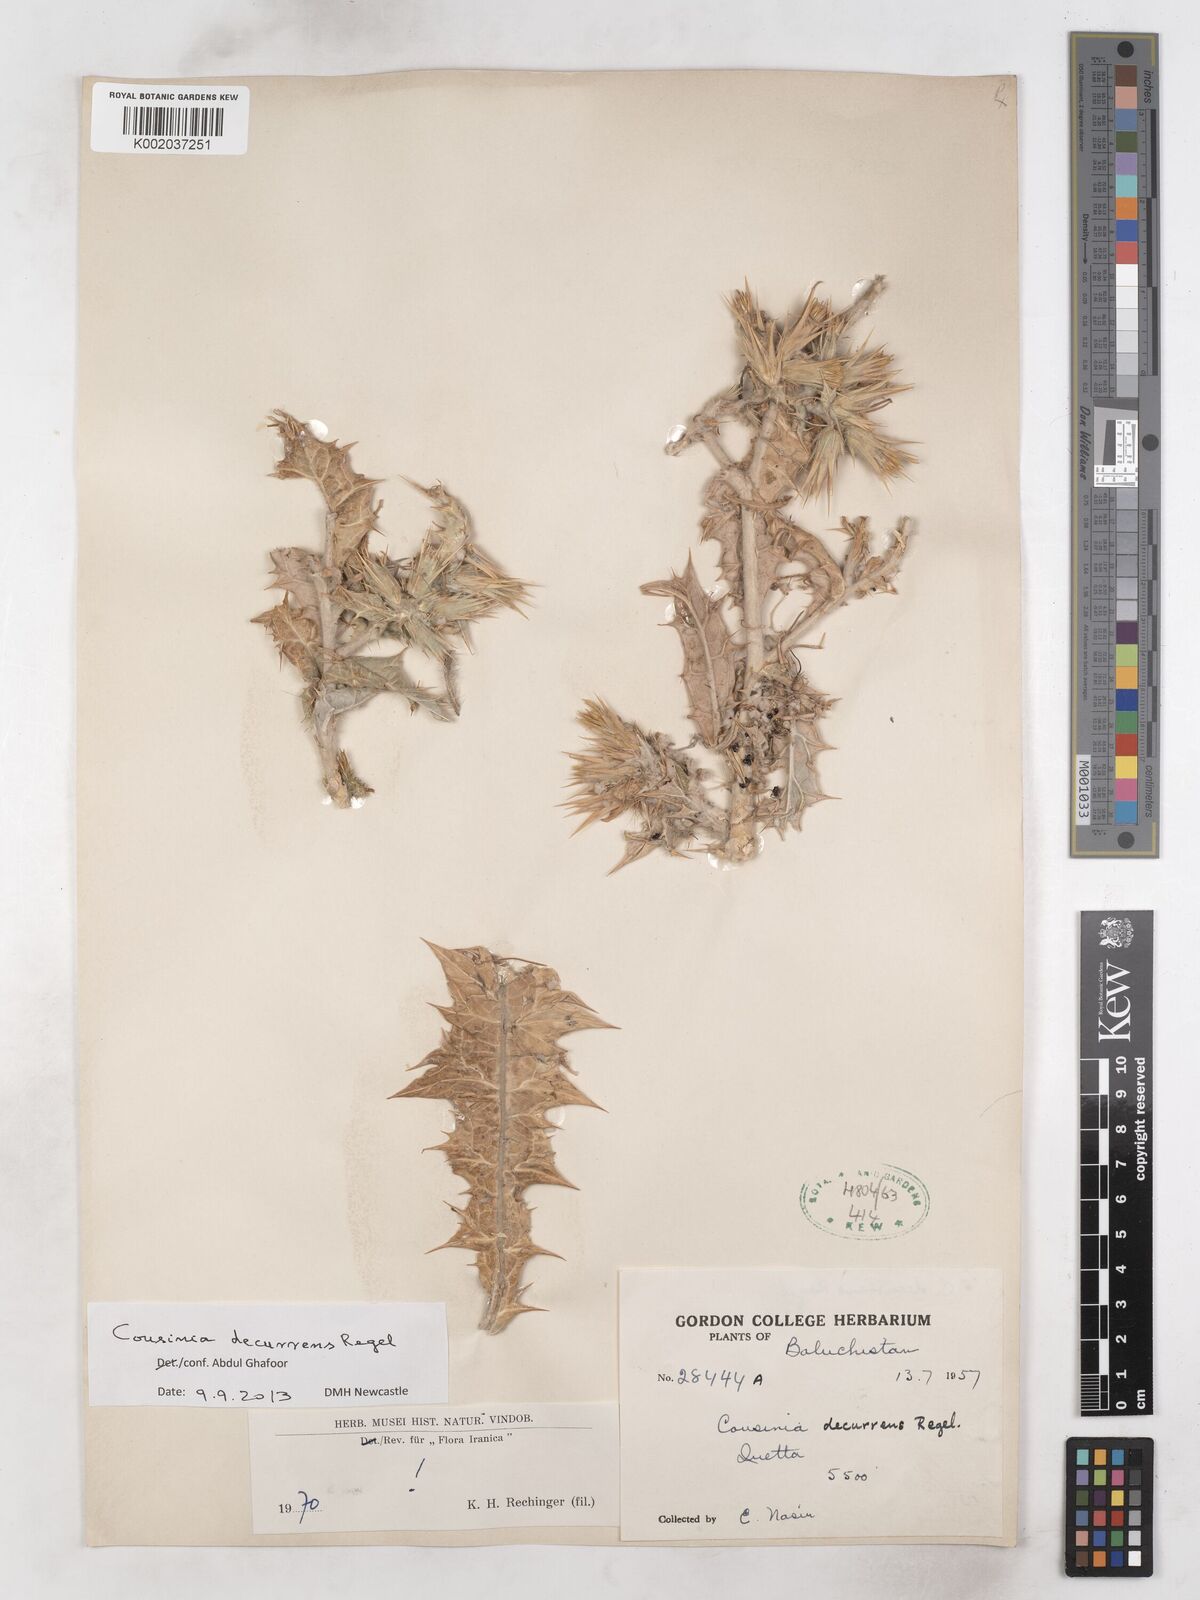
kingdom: Plantae
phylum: Tracheophyta
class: Magnoliopsida
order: Asterales
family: Asteraceae
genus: Cousinia
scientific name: Cousinia decurrens
